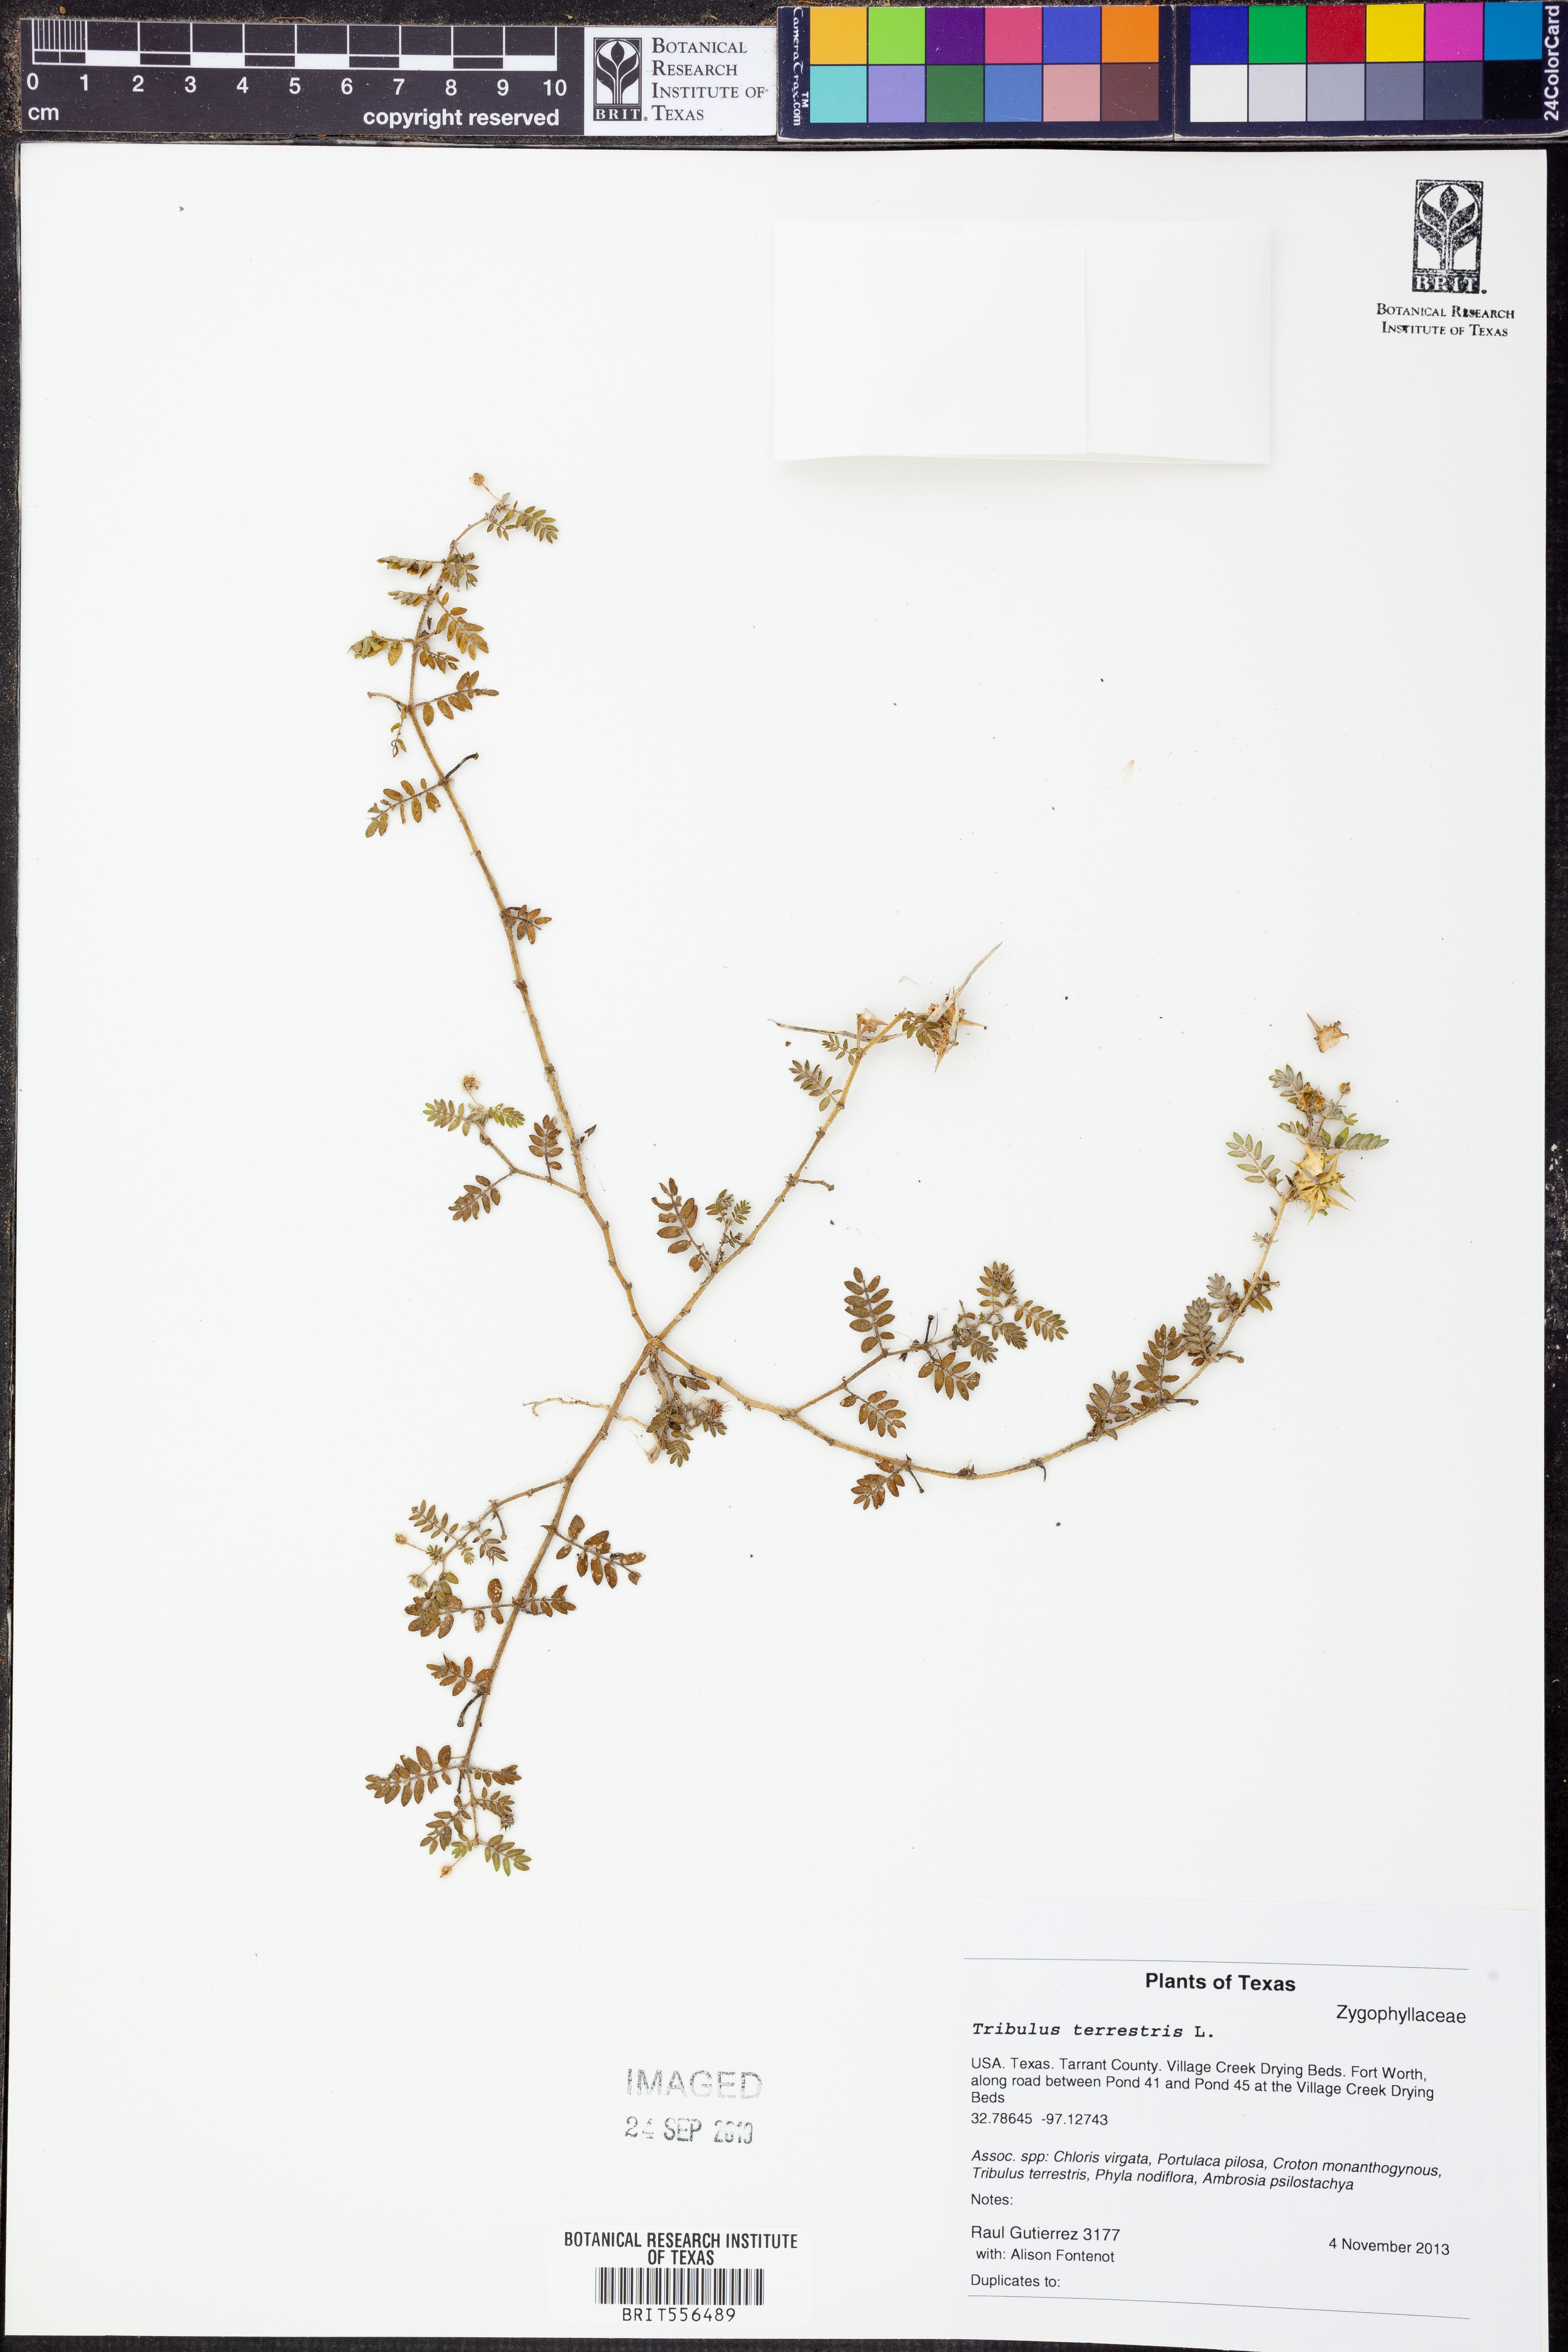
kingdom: Plantae
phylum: Tracheophyta
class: Magnoliopsida
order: Zygophyllales
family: Zygophyllaceae
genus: Tribulus
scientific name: Tribulus terrestris
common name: Puncturevine
